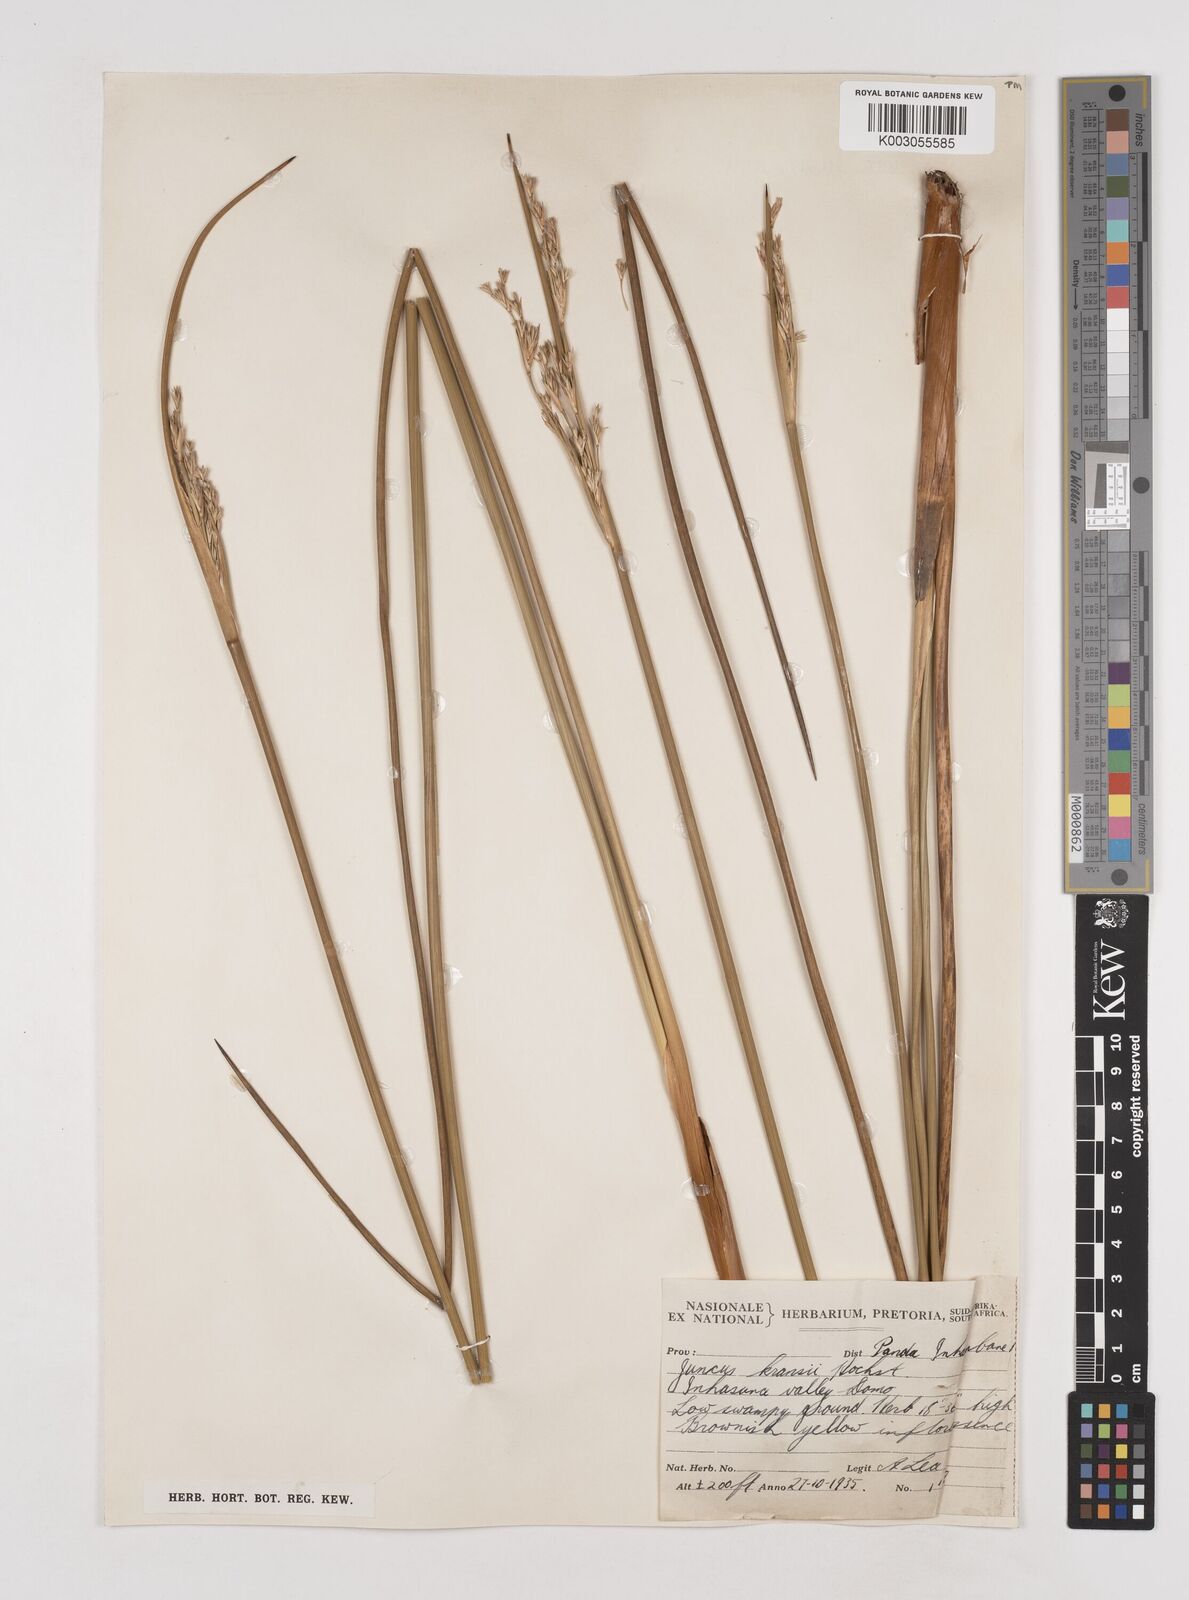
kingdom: Plantae
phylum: Tracheophyta
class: Liliopsida
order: Poales
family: Juncaceae
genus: Juncus
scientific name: Juncus kraussii
